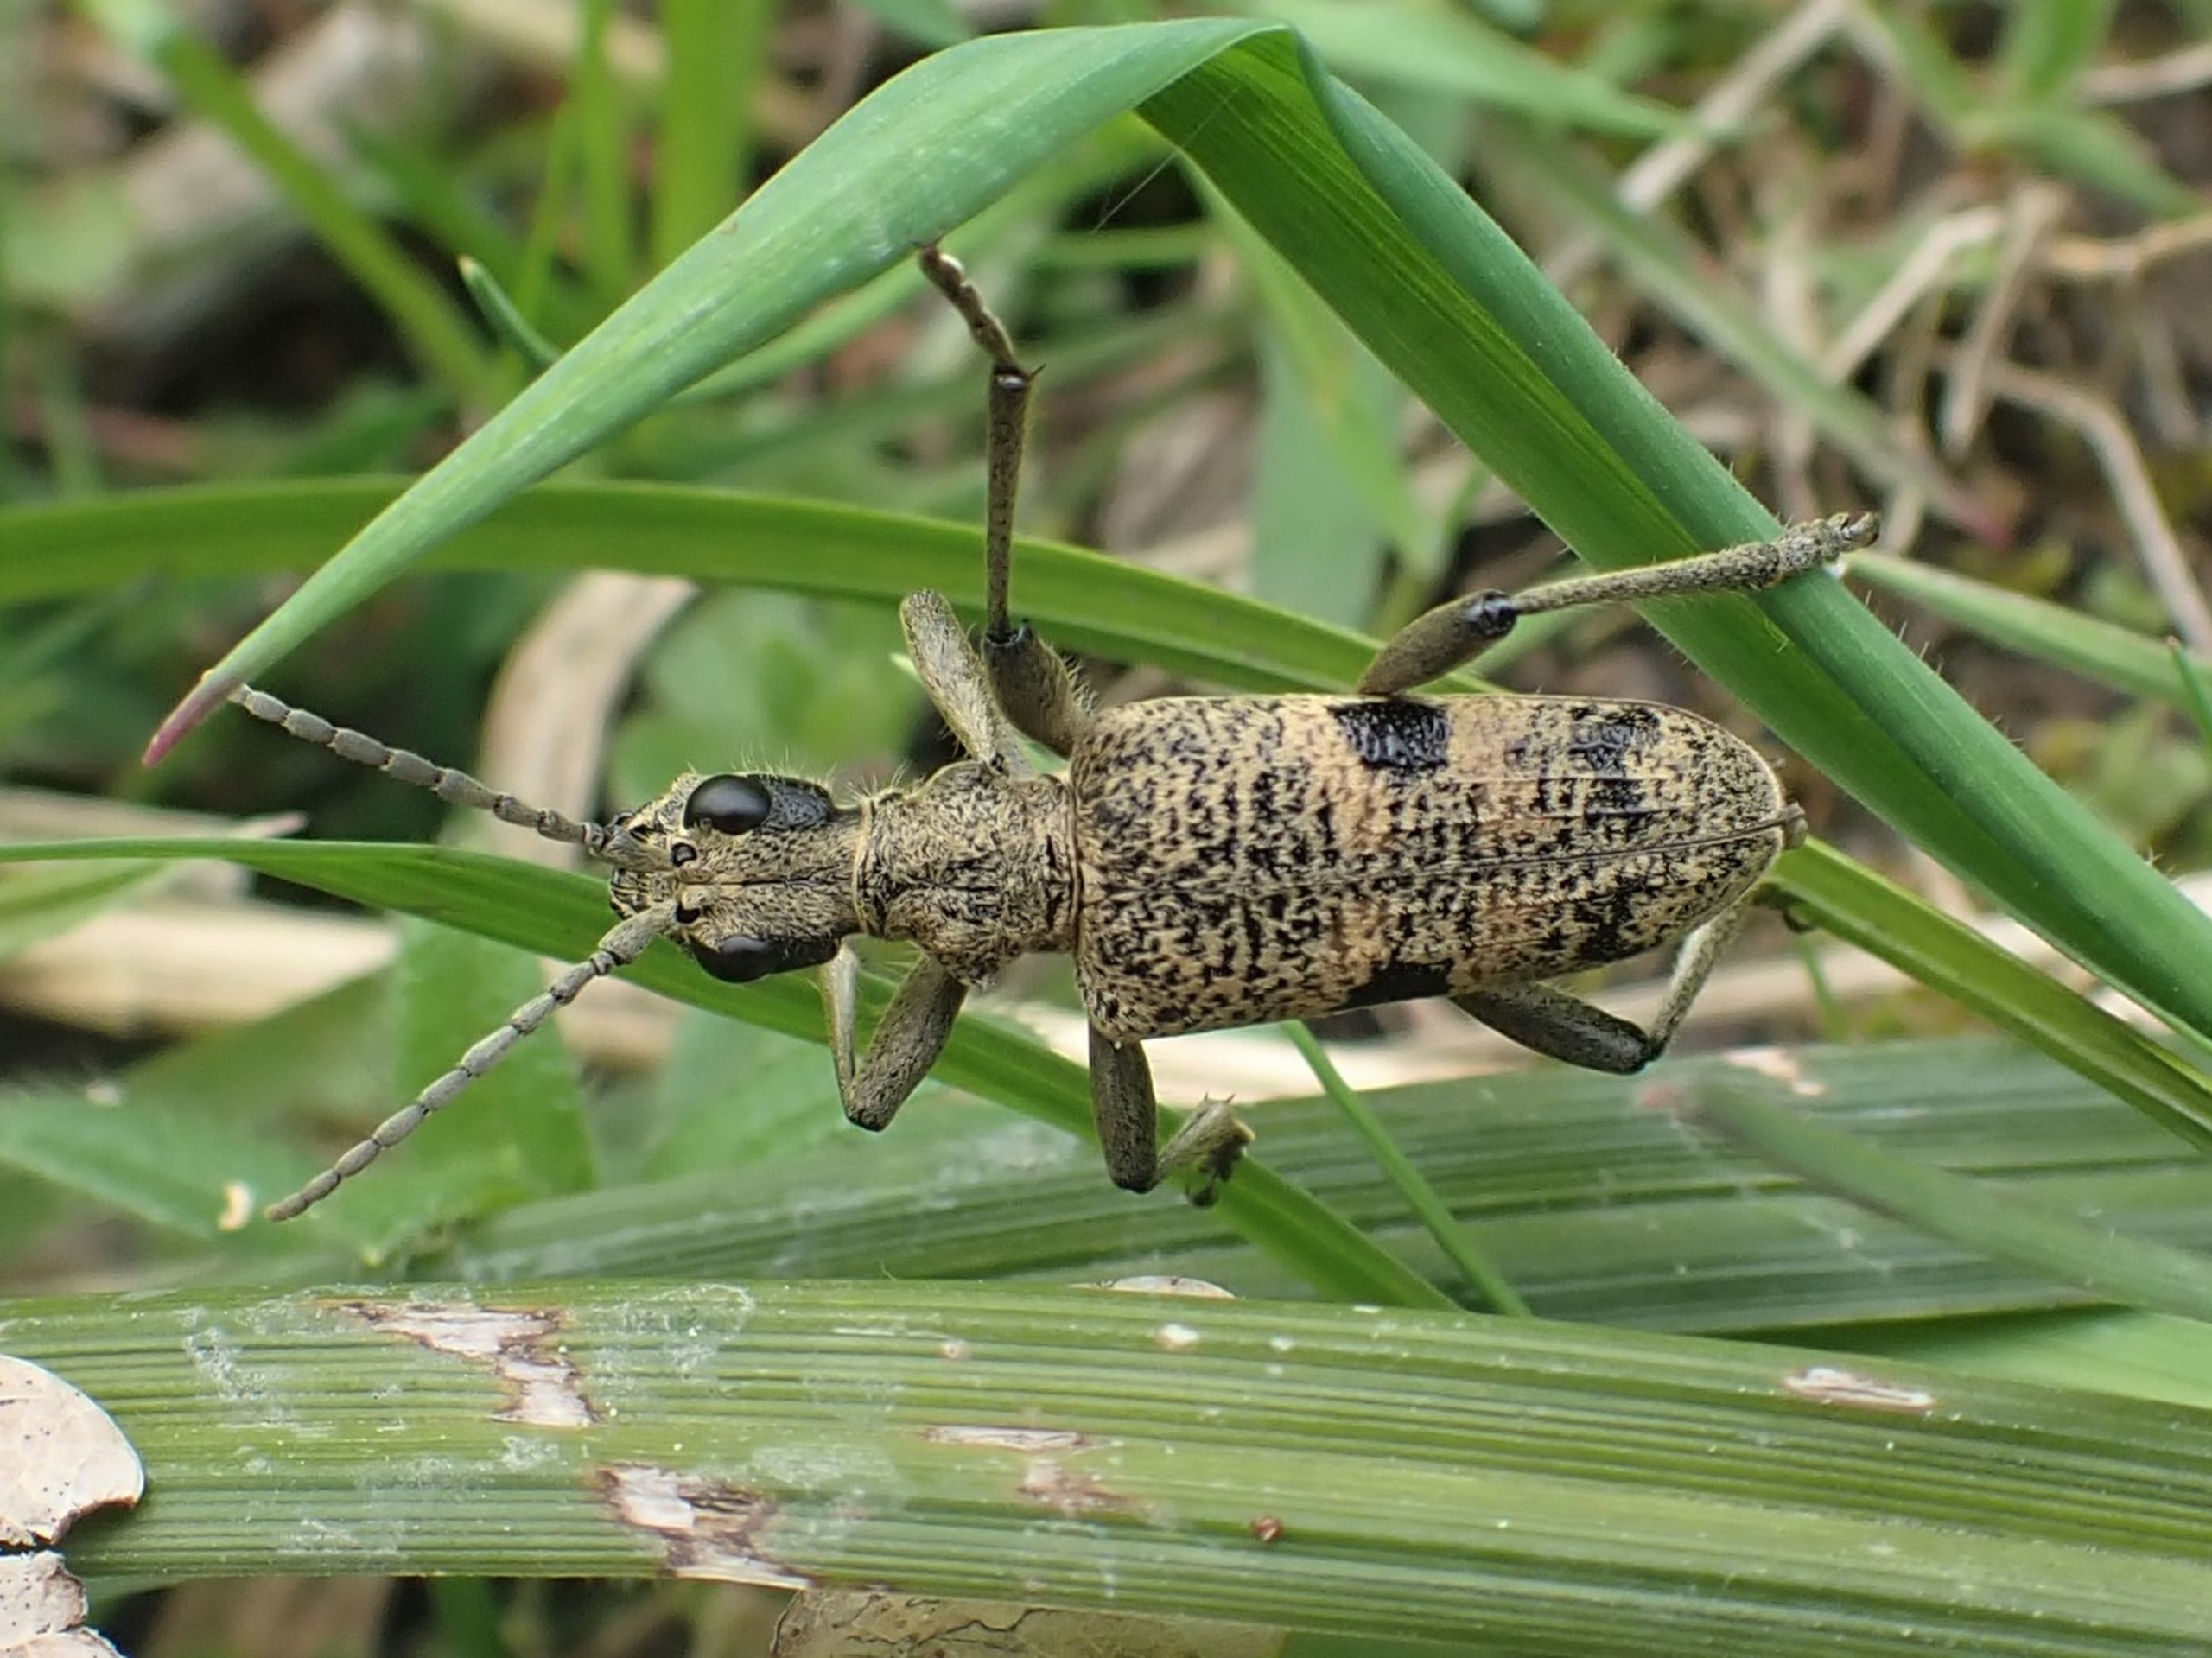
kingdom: Animalia
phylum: Arthropoda
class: Insecta
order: Coleoptera
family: Cerambycidae
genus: Rhagium
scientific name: Rhagium mordax
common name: Blankplettet tandbuk
